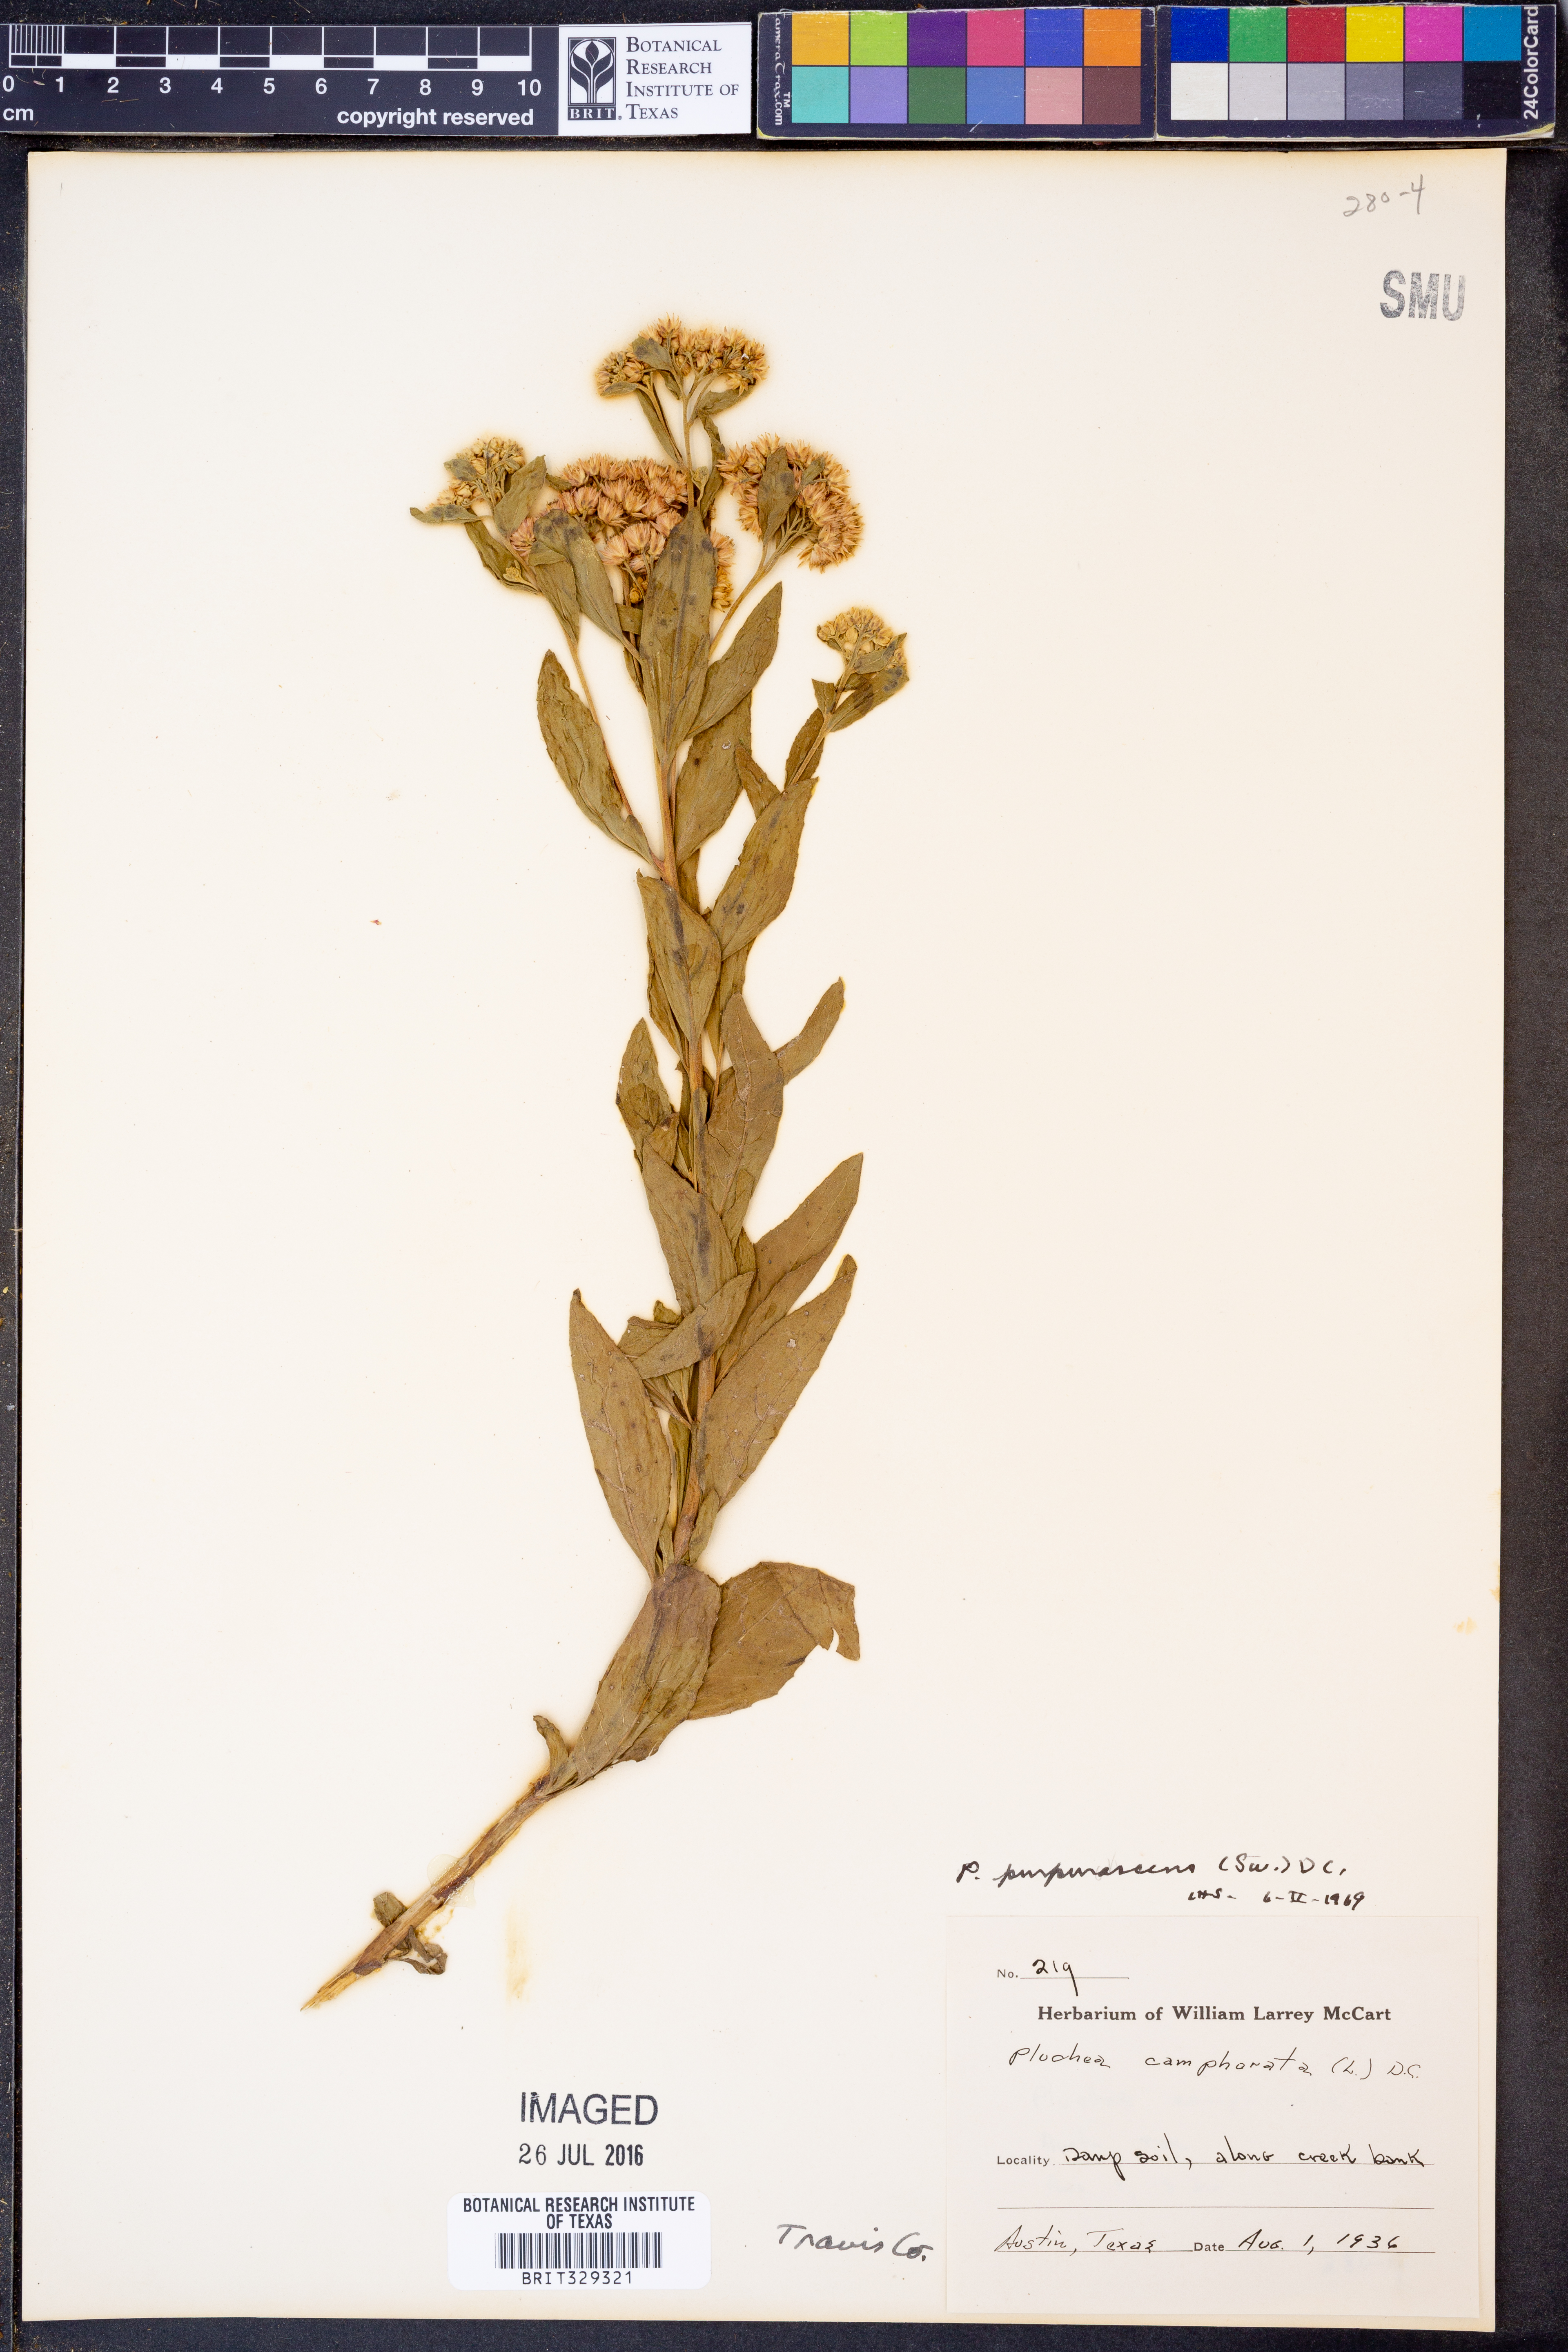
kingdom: Plantae
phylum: Tracheophyta
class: Magnoliopsida
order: Asterales
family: Asteraceae
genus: Pluchea
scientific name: Pluchea odorata
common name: Saltmarsh fleabane
